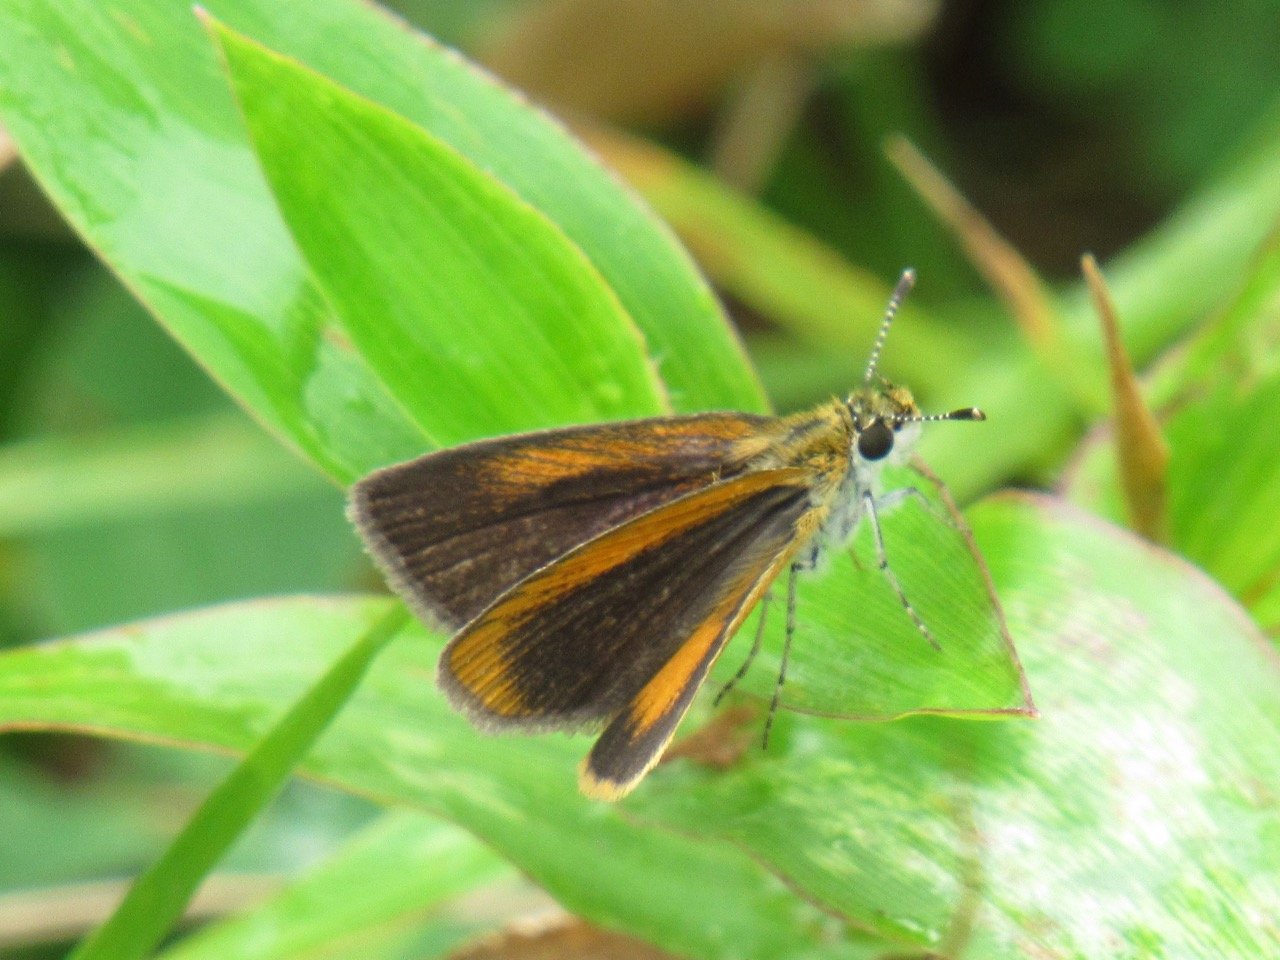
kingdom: Animalia
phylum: Arthropoda
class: Insecta
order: Lepidoptera
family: Hesperiidae
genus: Ancyloxypha
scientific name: Ancyloxypha numitor
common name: Least Skipper
